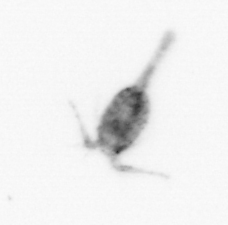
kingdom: Animalia
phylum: Arthropoda
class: Copepoda
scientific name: Copepoda
